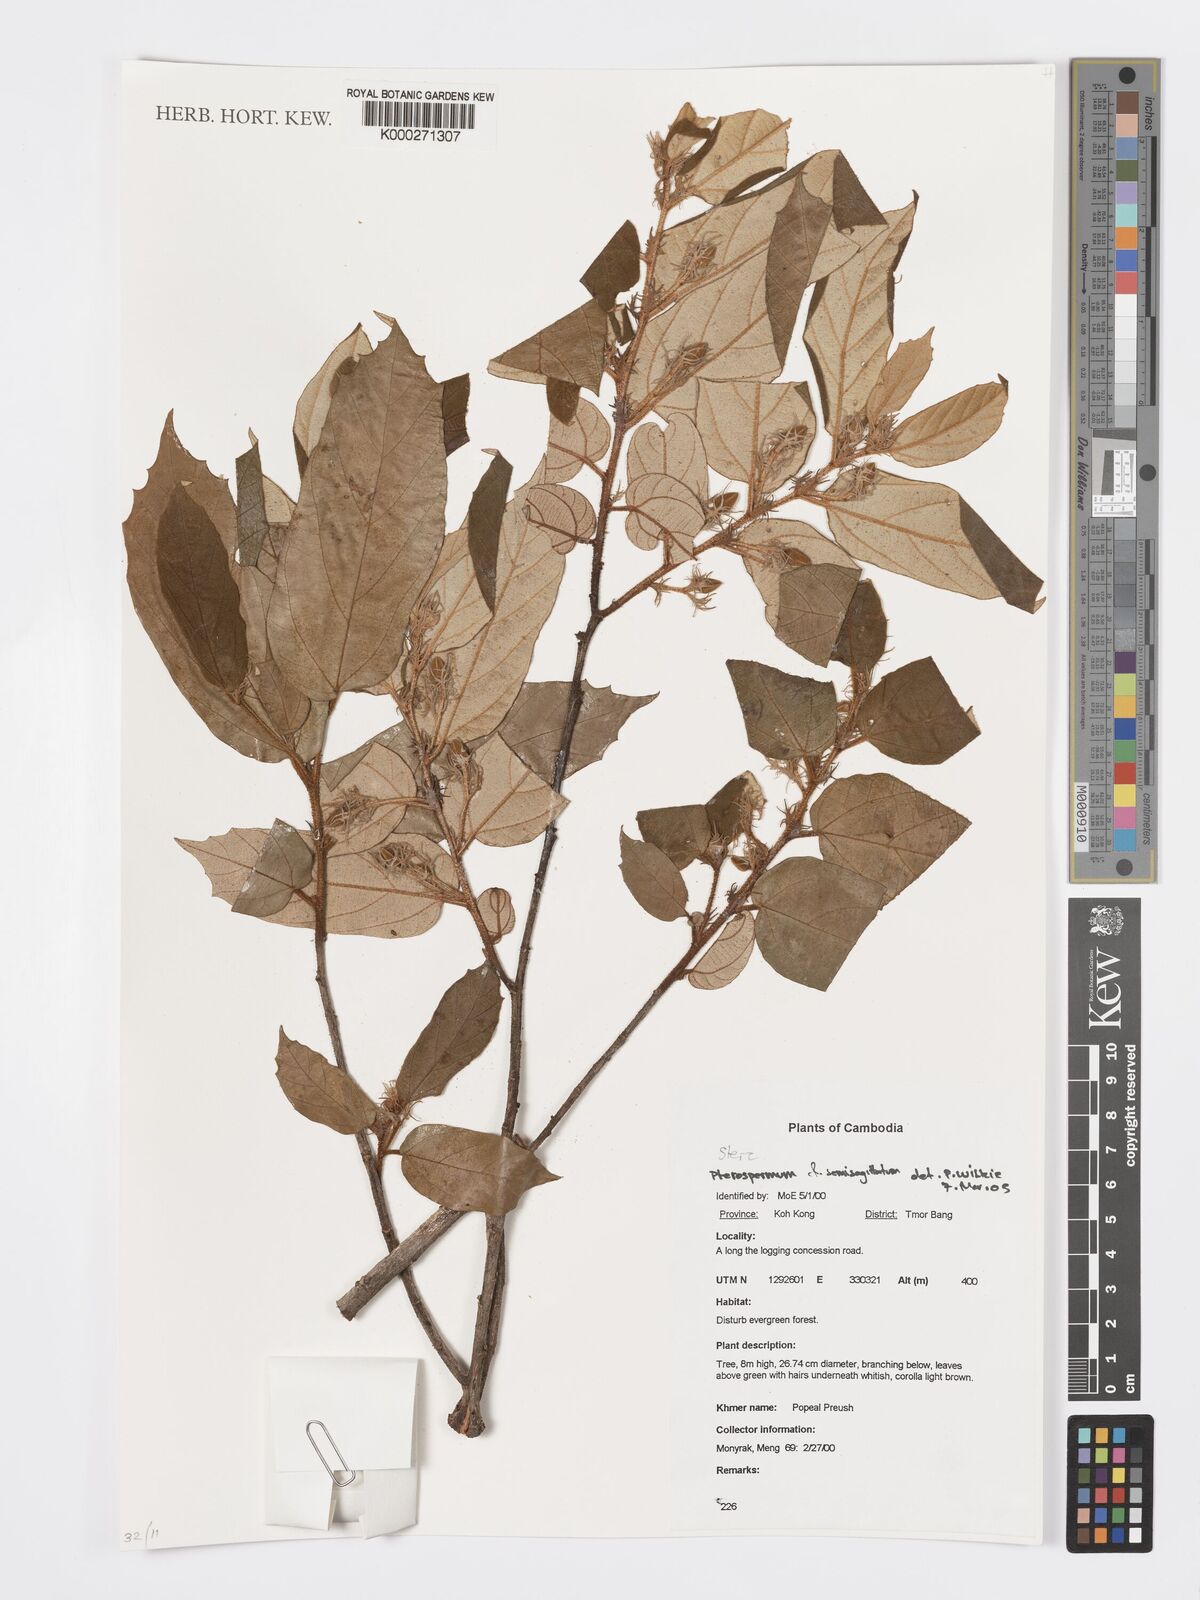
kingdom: Plantae
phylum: Tracheophyta
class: Magnoliopsida
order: Malvales
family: Malvaceae
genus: Pterospermum
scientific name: Pterospermum
